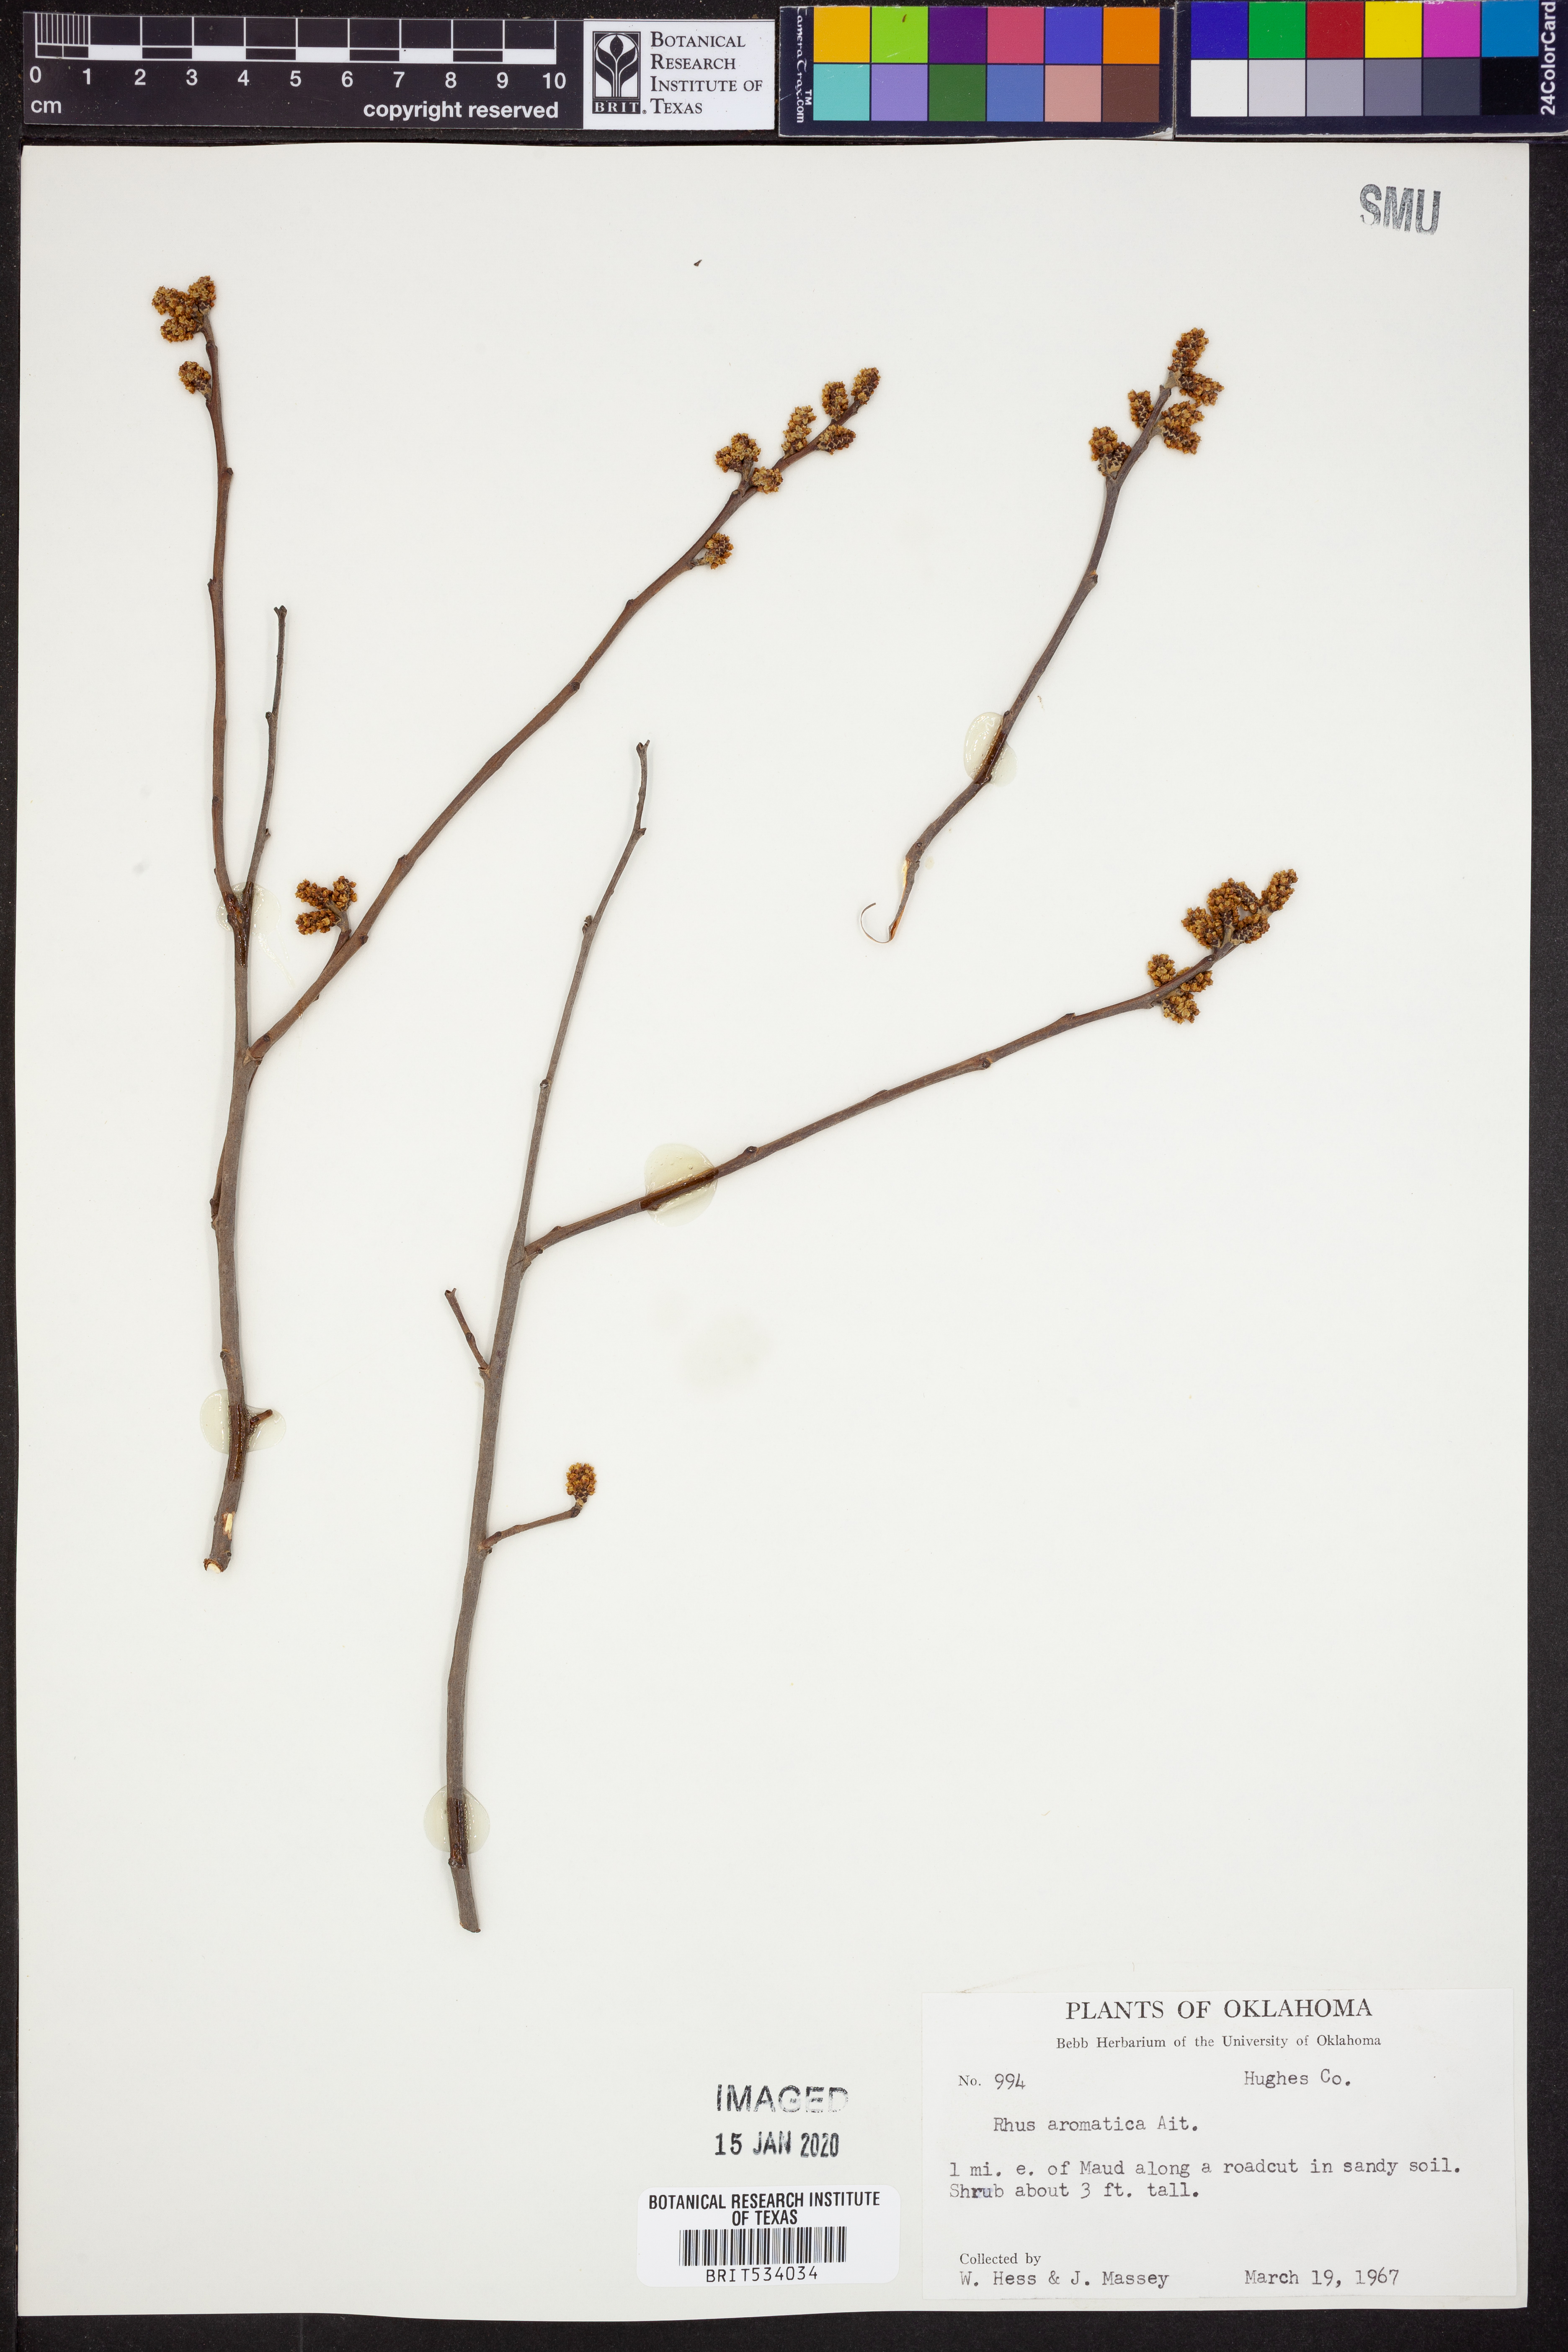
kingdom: Plantae
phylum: Tracheophyta
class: Magnoliopsida
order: Sapindales
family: Anacardiaceae
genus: Rhus
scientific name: Rhus aromatica
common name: Aromatic sumac
